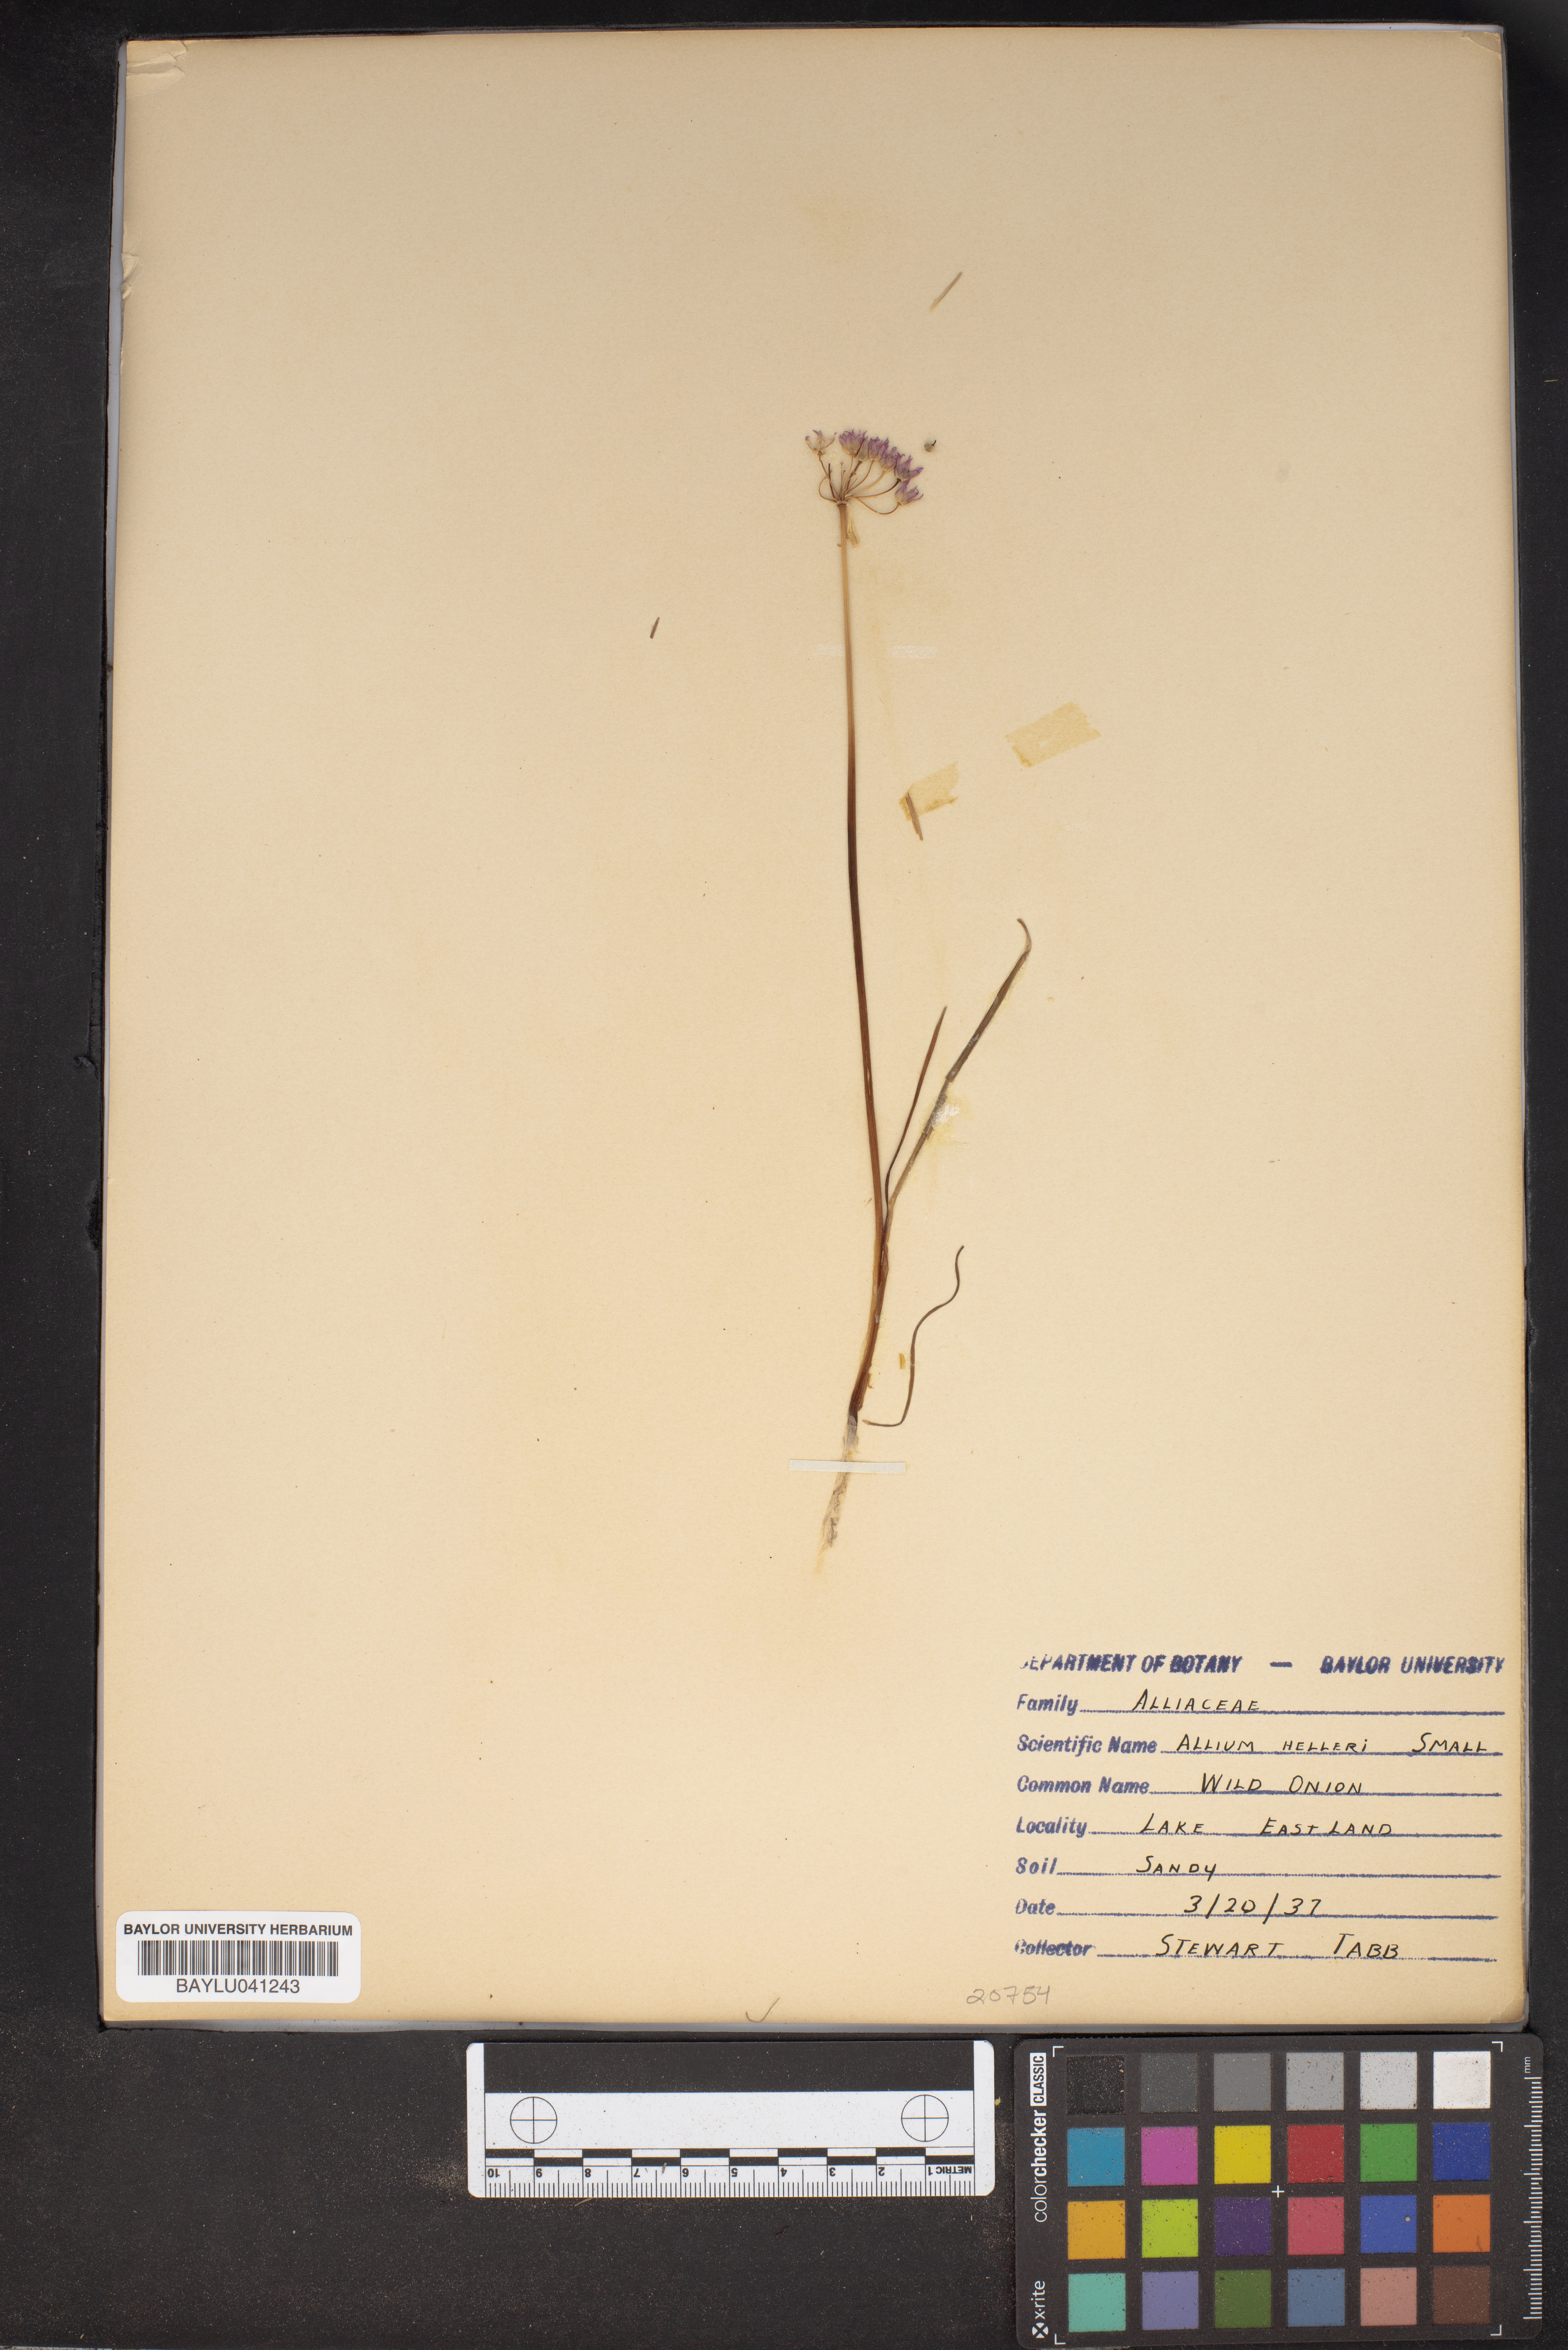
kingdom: Plantae
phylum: Tracheophyta
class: Liliopsida
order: Asparagales
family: Amaryllidaceae
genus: Allium
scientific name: Allium drummondii
